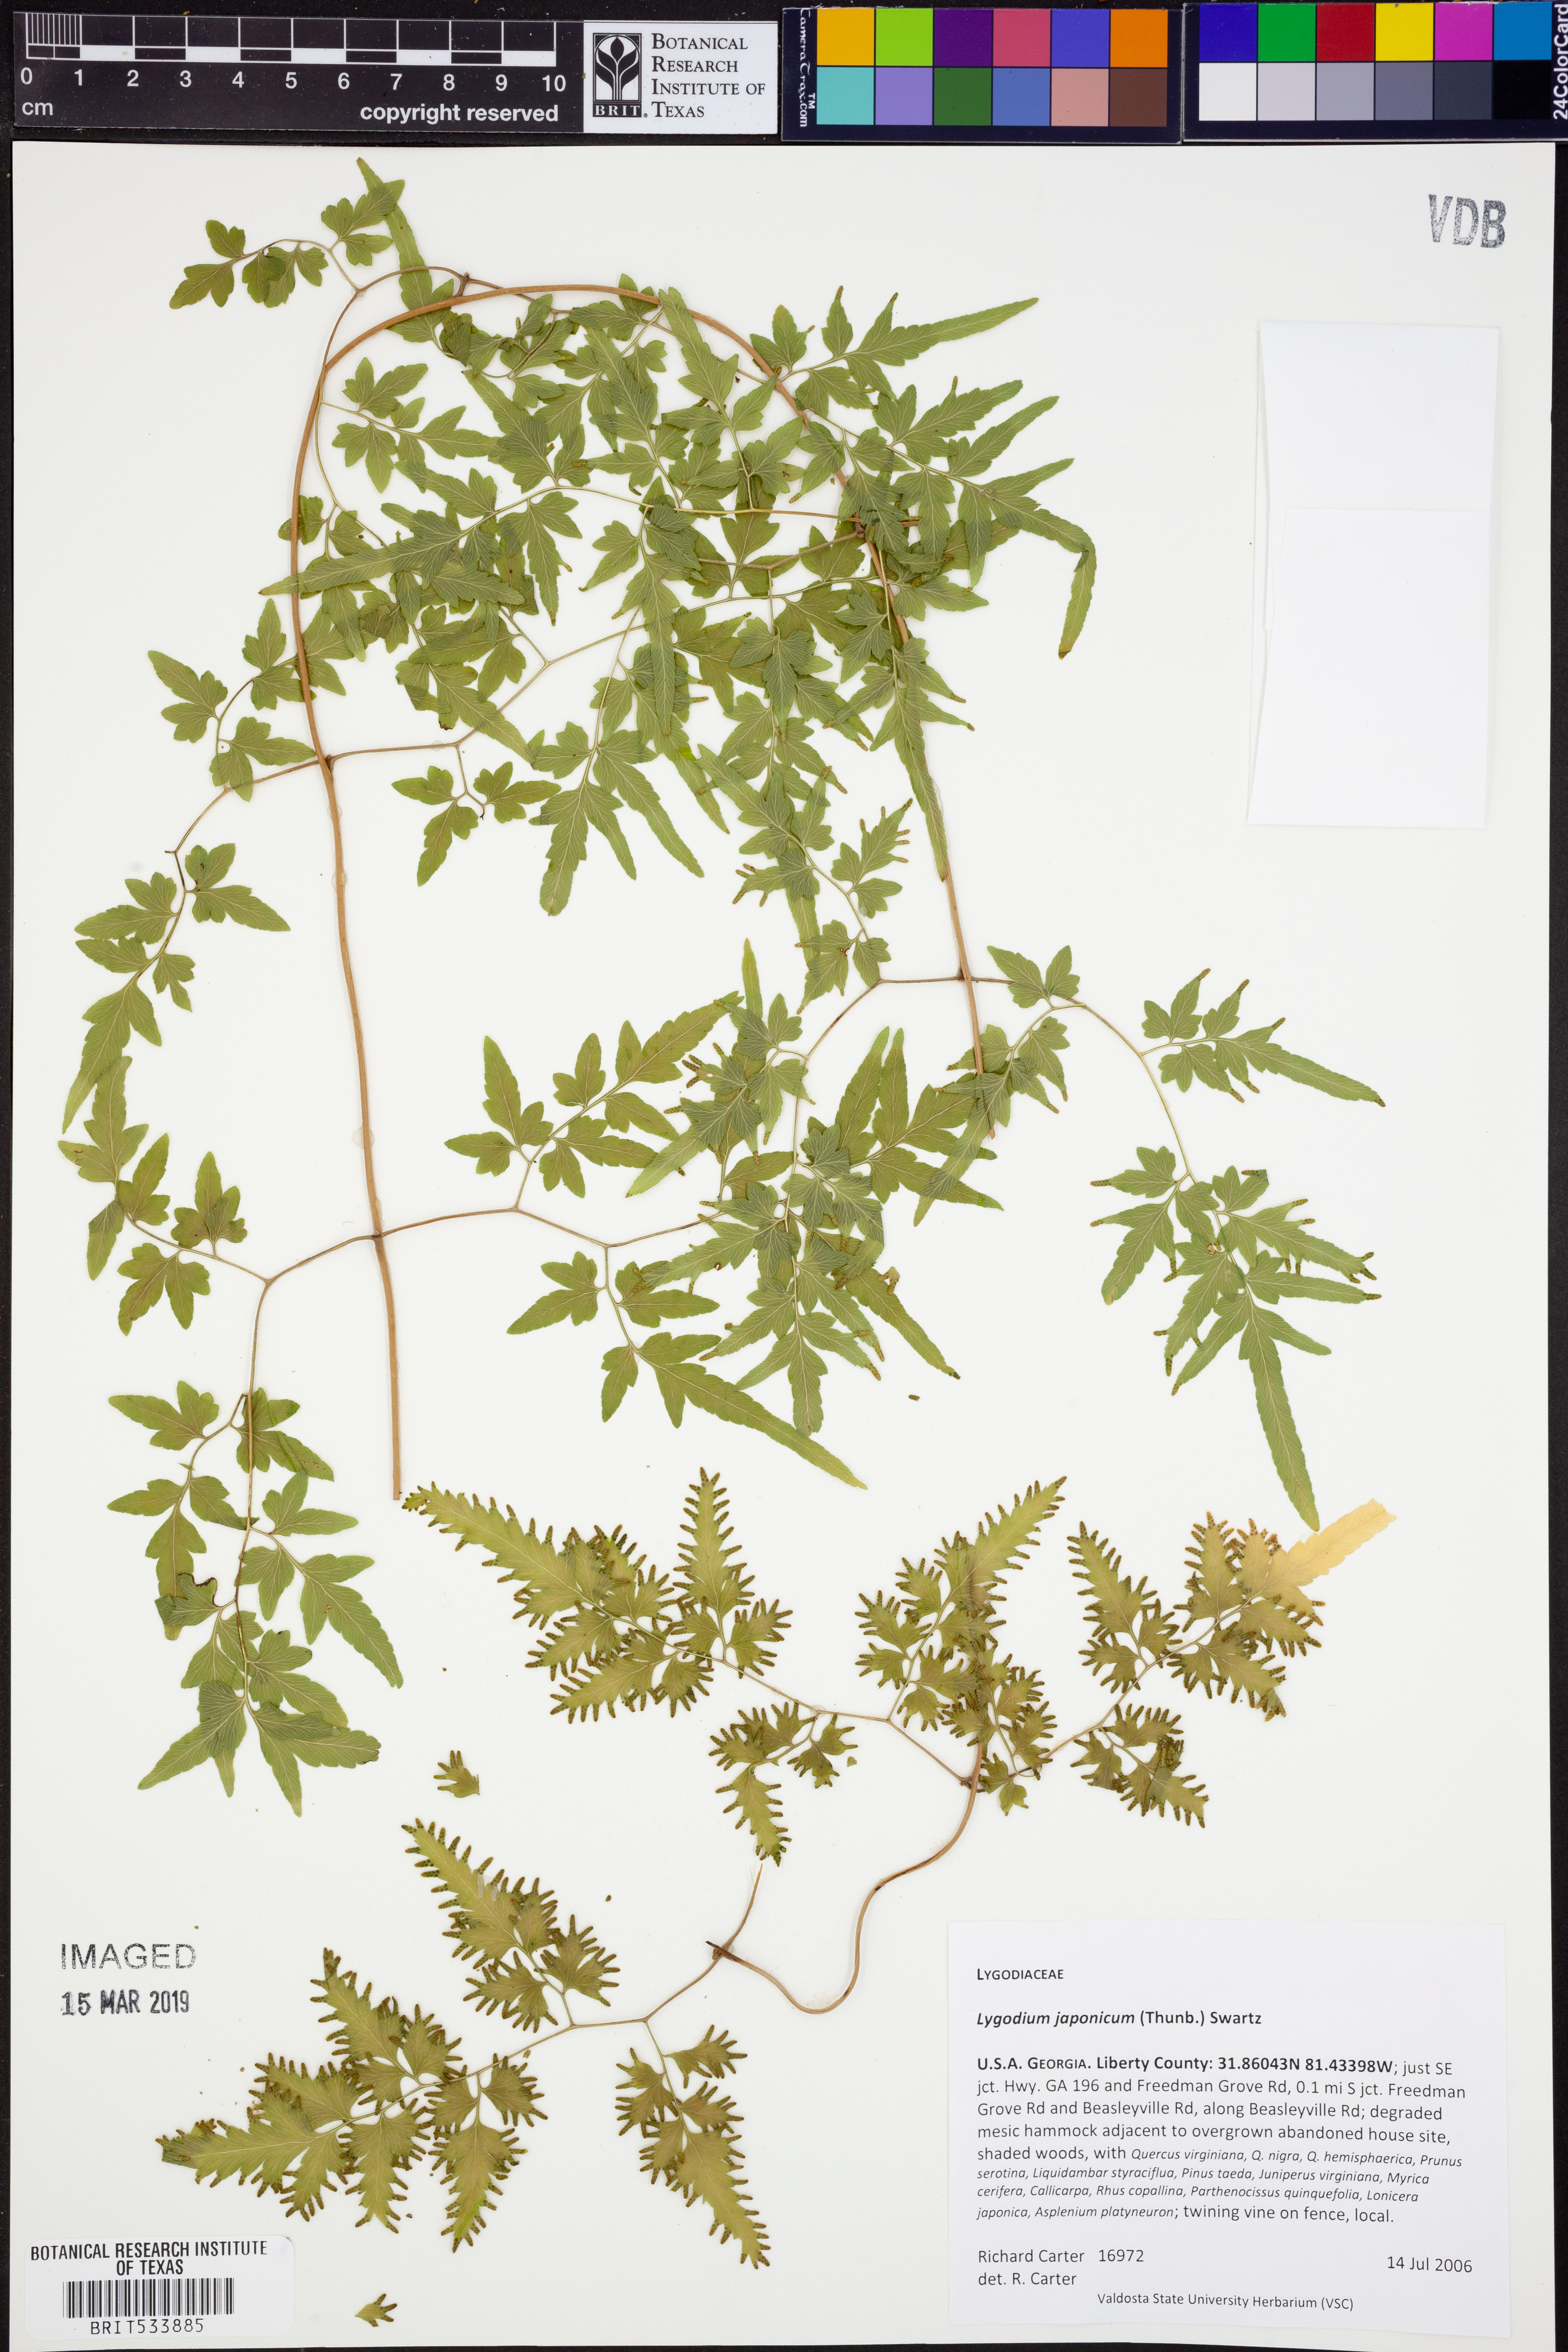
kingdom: Plantae
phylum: Tracheophyta
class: Polypodiopsida
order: Schizaeales
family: Lygodiaceae
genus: Lygodium
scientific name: Lygodium japonicum
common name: Japanese climbing fern
